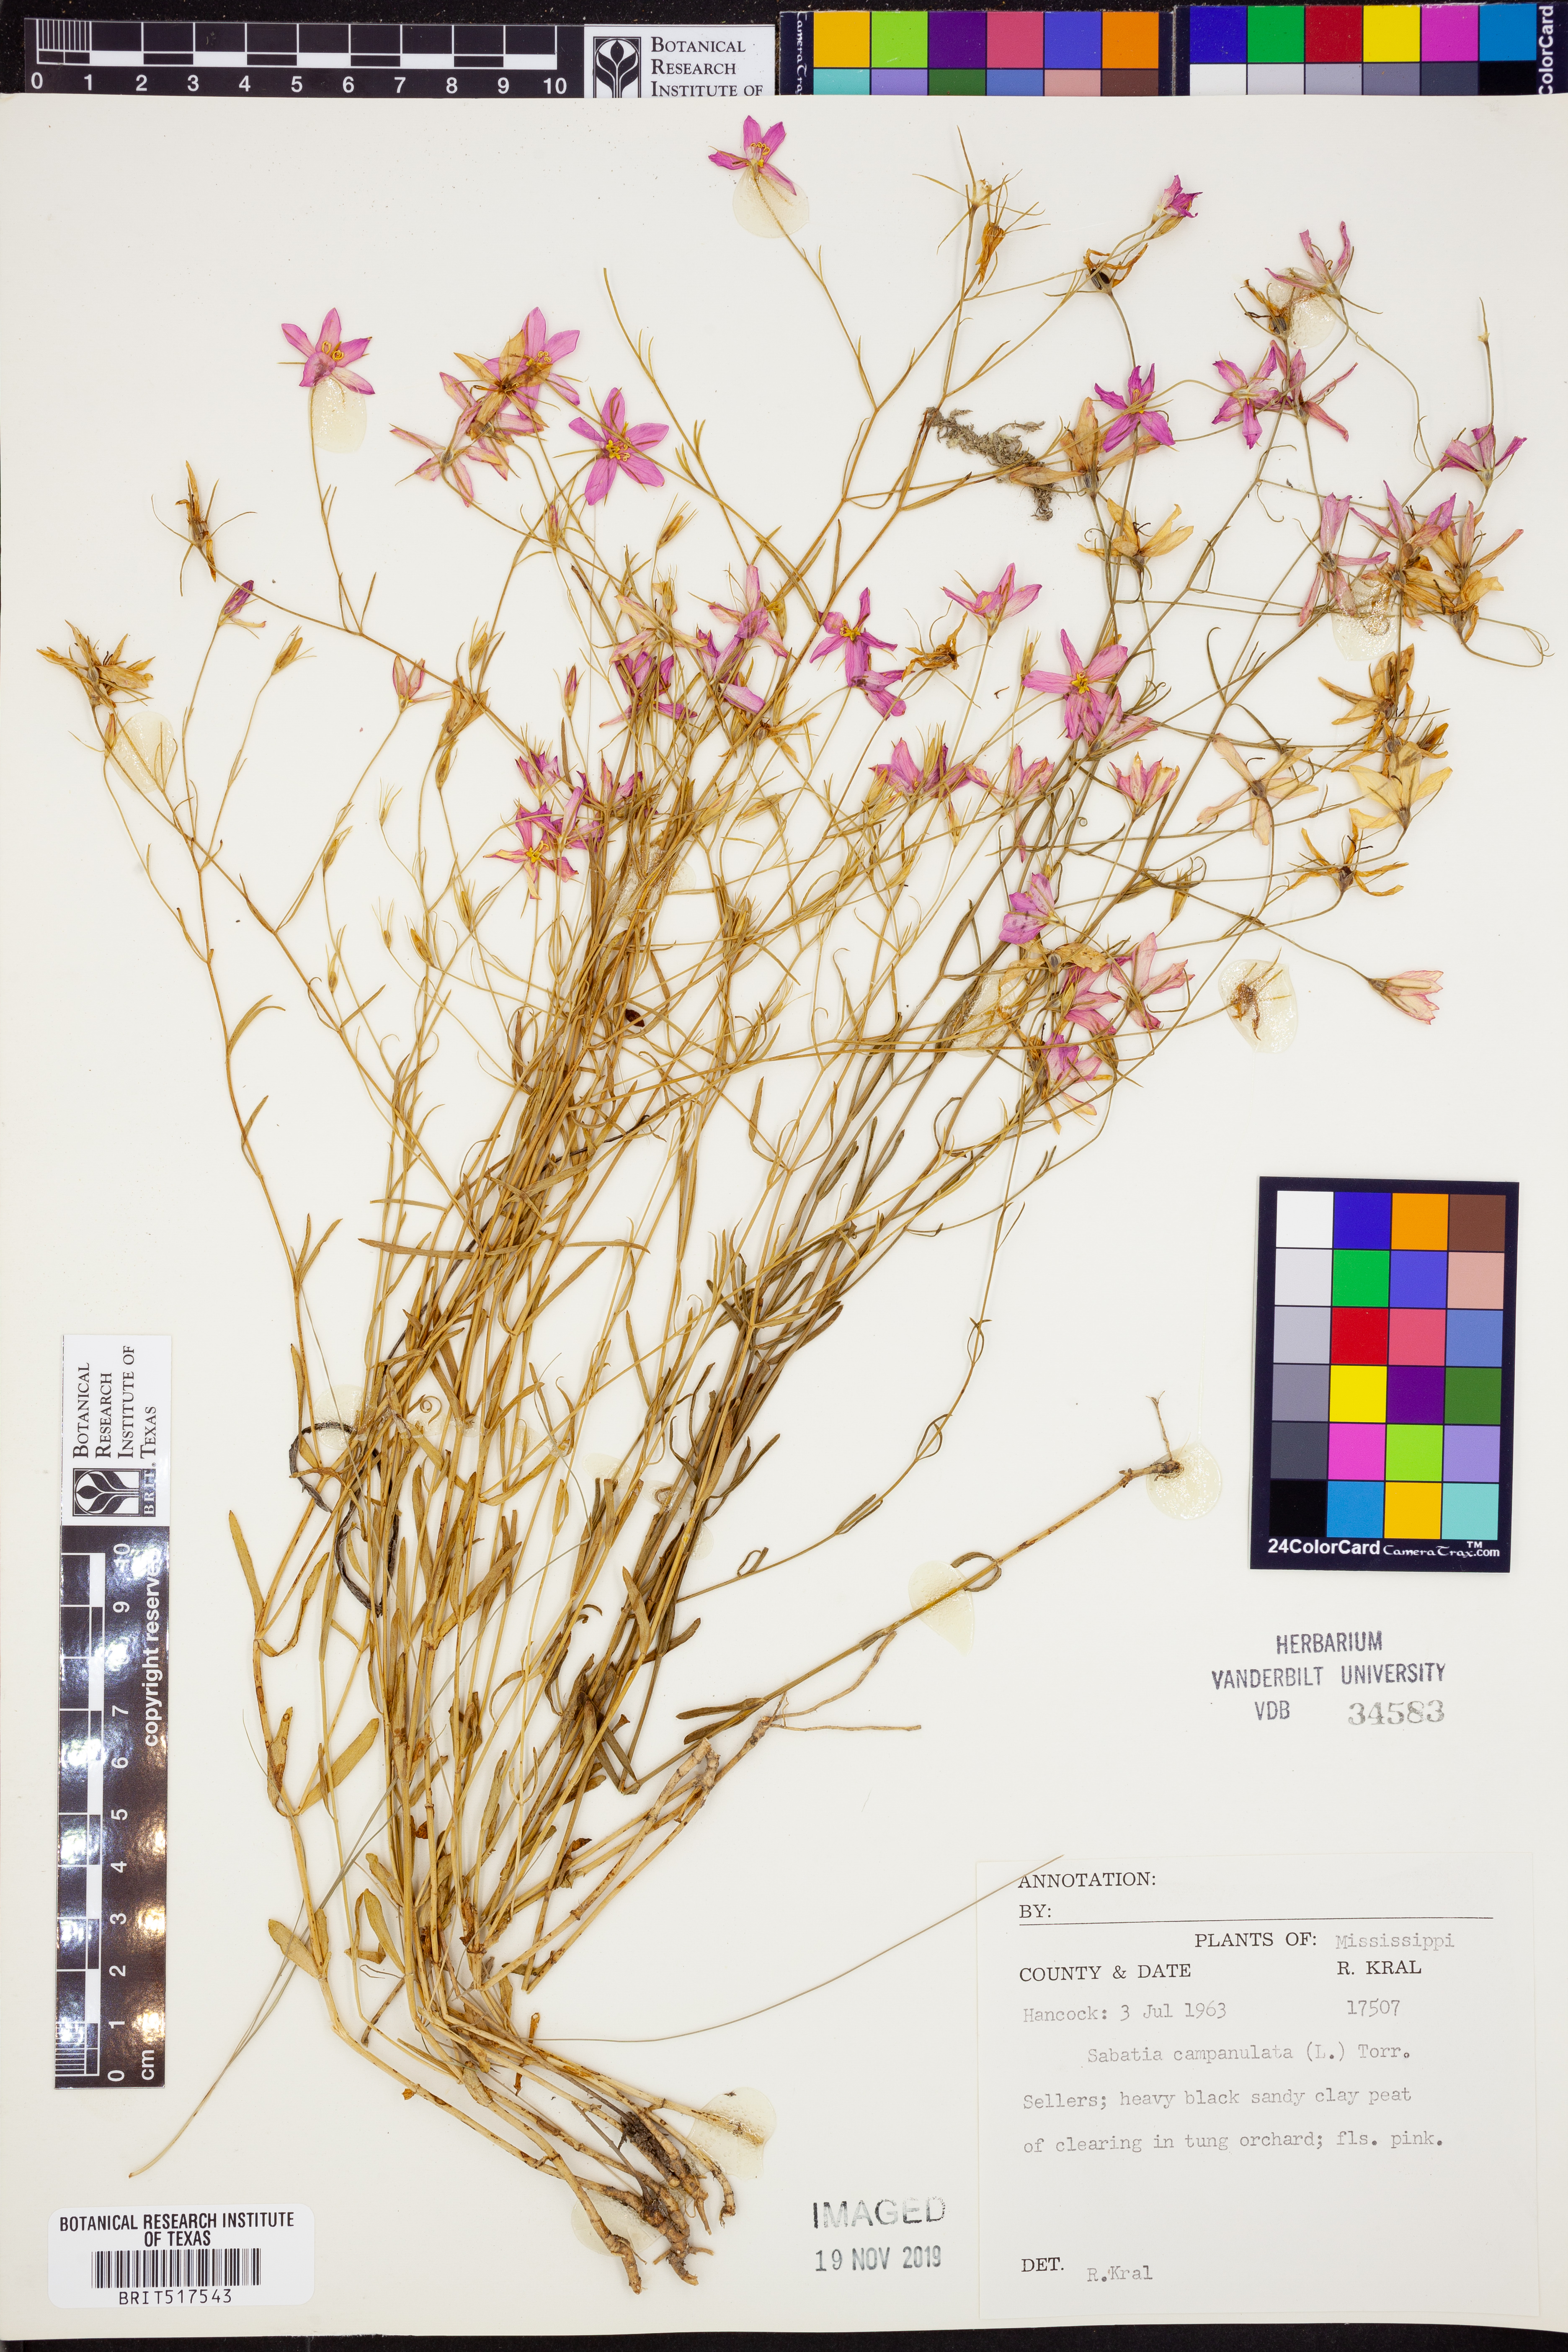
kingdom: Plantae
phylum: Tracheophyta
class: Magnoliopsida
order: Gentianales
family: Gentianaceae
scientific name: Gentianaceae
